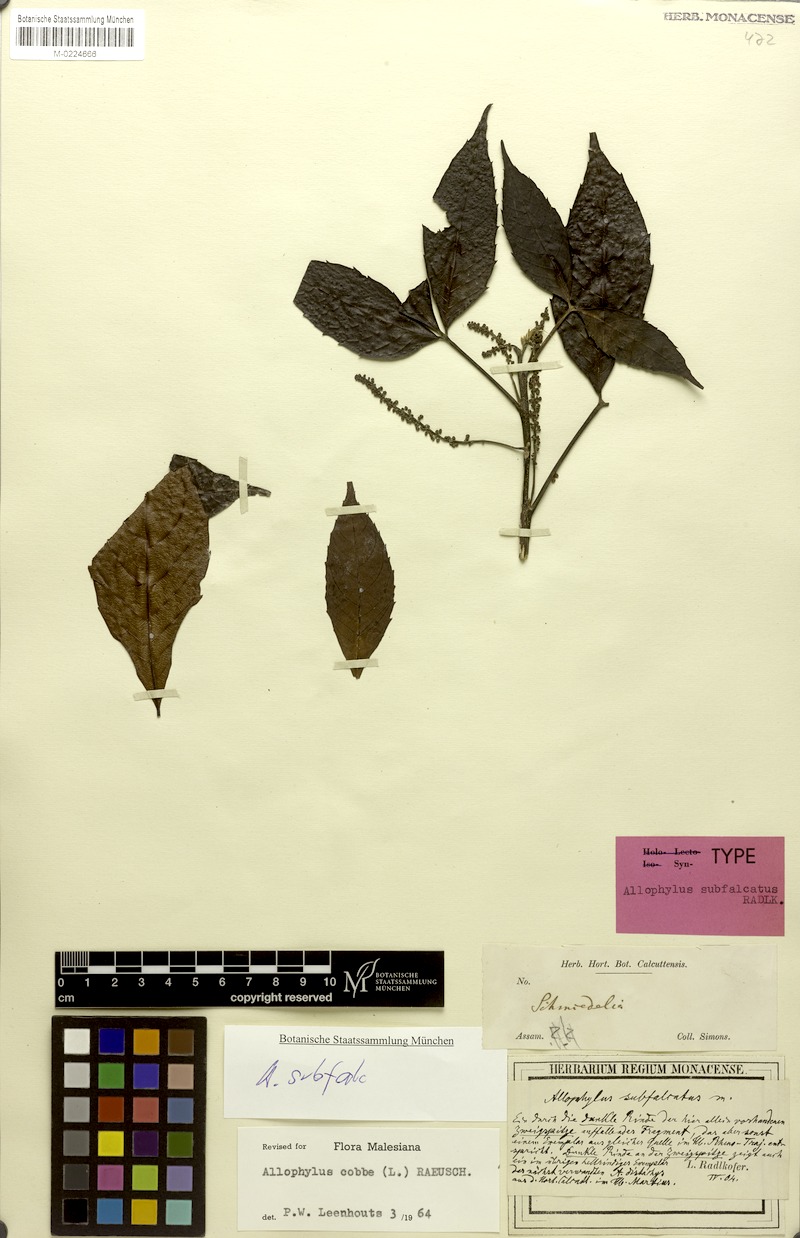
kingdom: Plantae
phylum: Tracheophyta
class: Magnoliopsida
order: Sapindales
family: Sapindaceae
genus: Allophylus
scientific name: Allophylus subfalcatus
